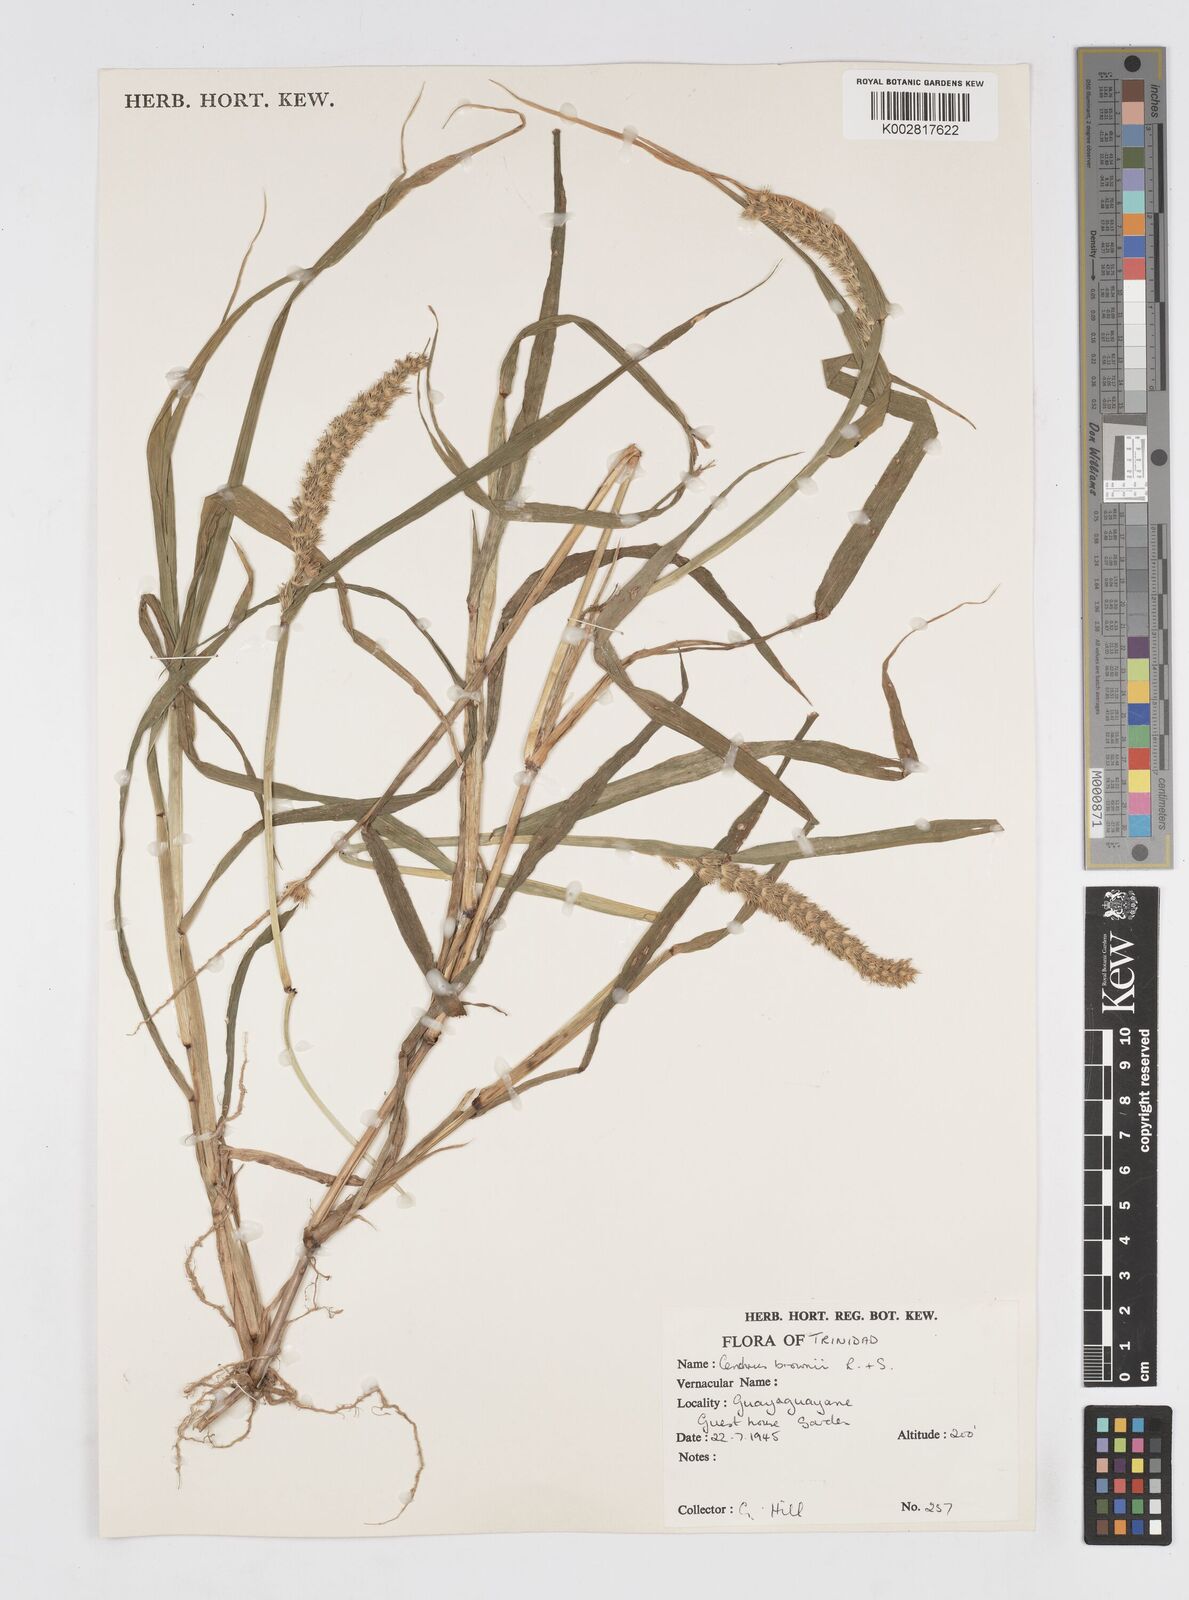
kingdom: Plantae
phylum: Tracheophyta
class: Liliopsida
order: Poales
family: Poaceae
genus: Cenchrus
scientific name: Cenchrus brownii
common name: Slim-bristle sandbur
